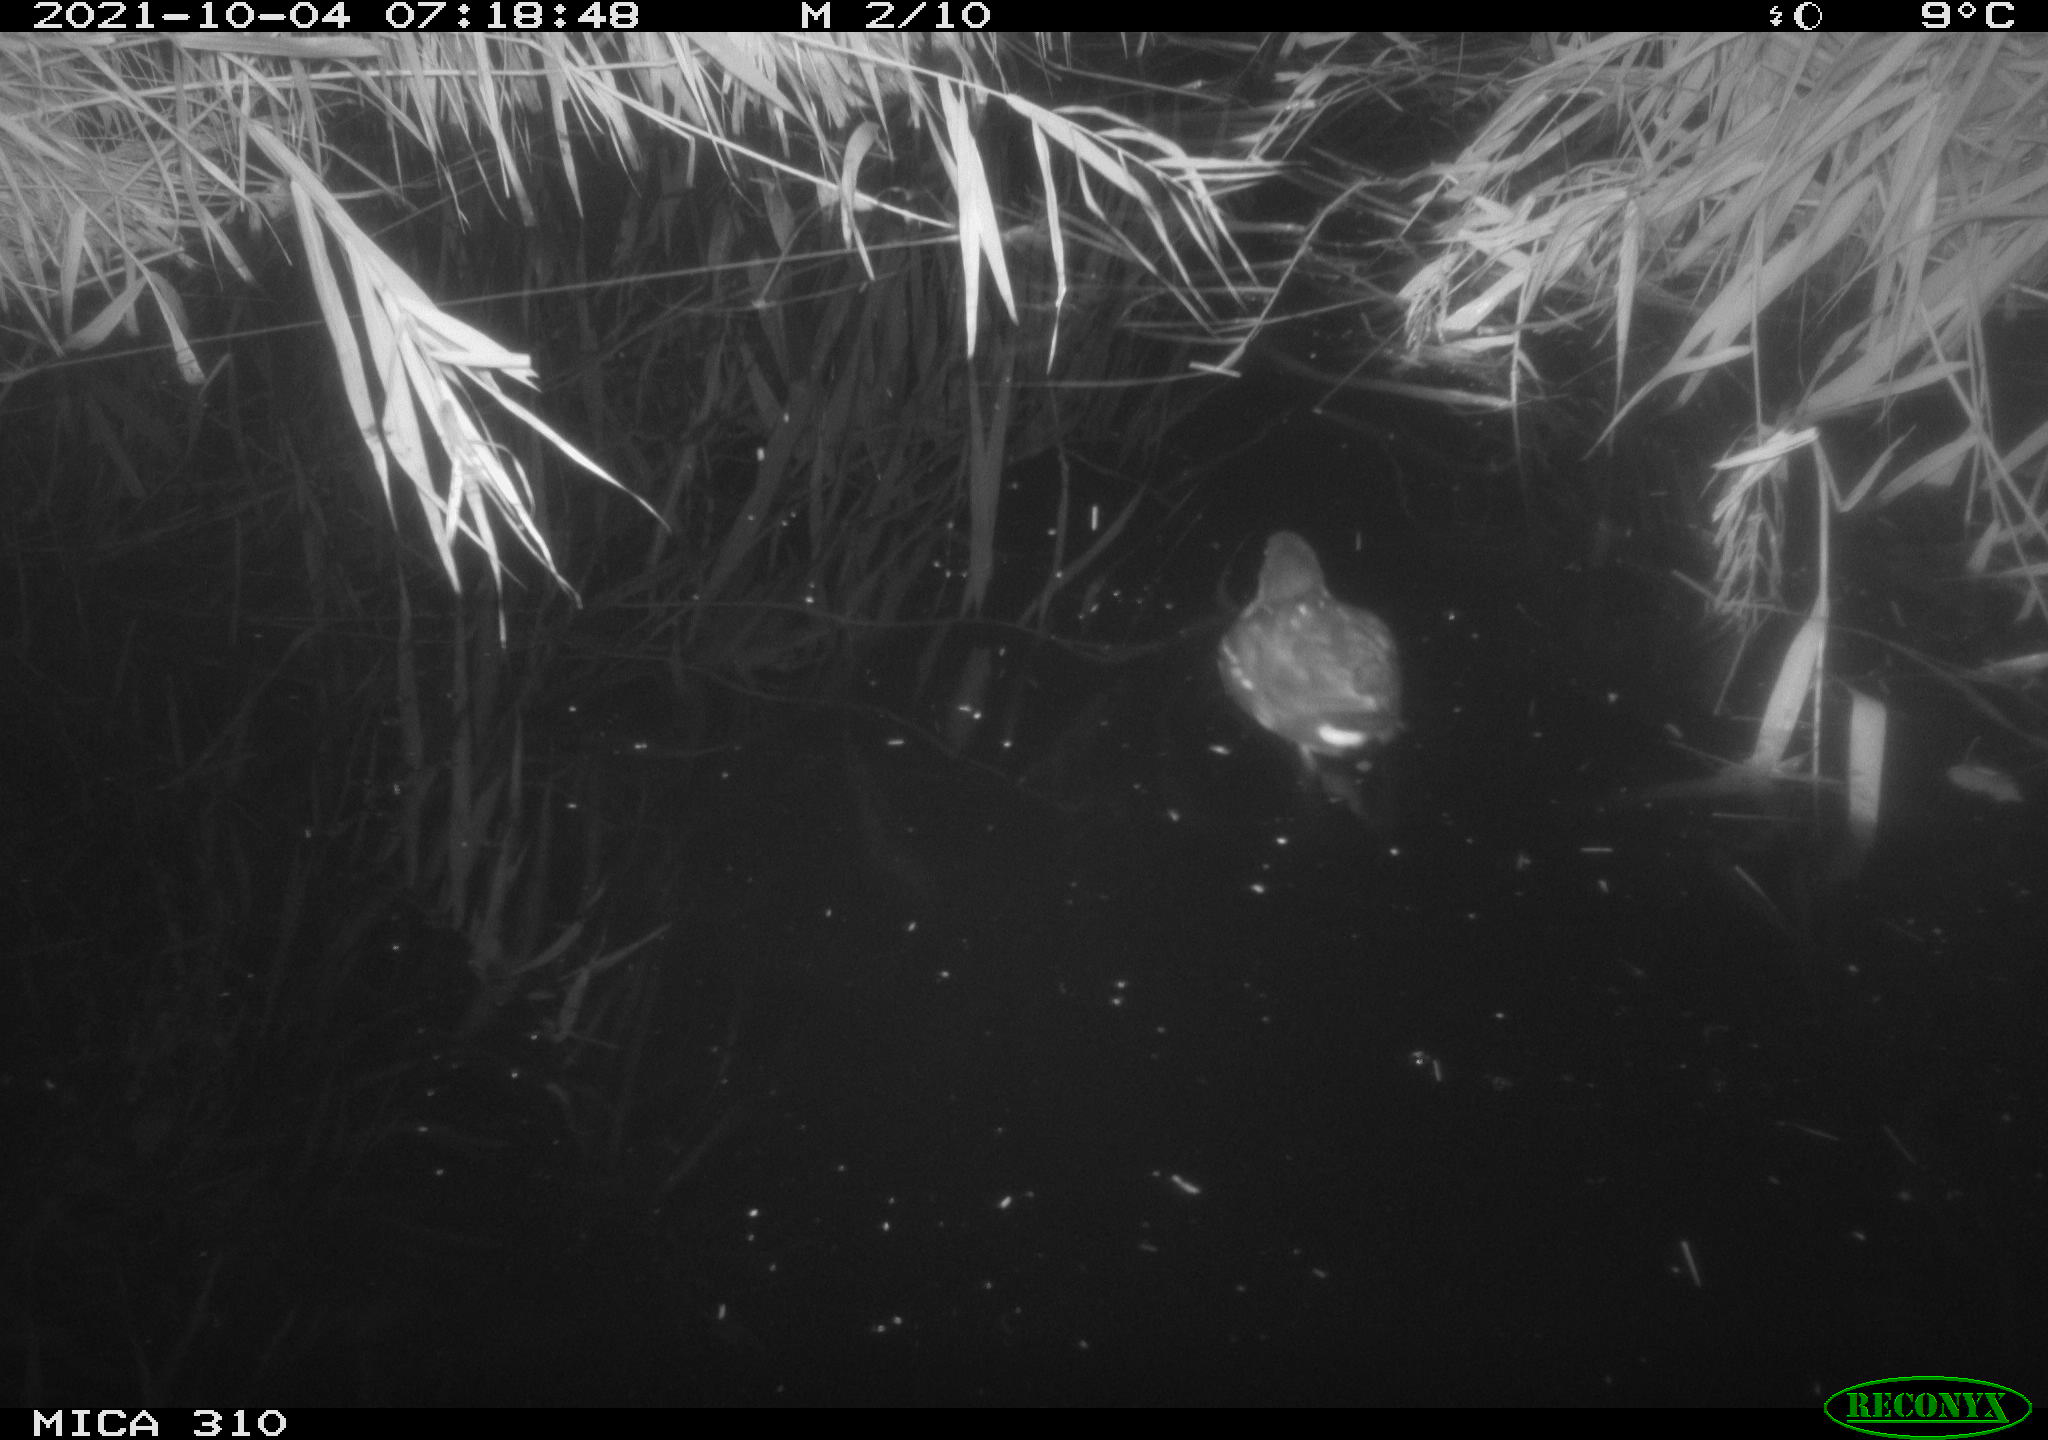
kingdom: Animalia
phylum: Chordata
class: Aves
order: Gruiformes
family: Rallidae
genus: Gallinula
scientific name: Gallinula chloropus
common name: Common moorhen
